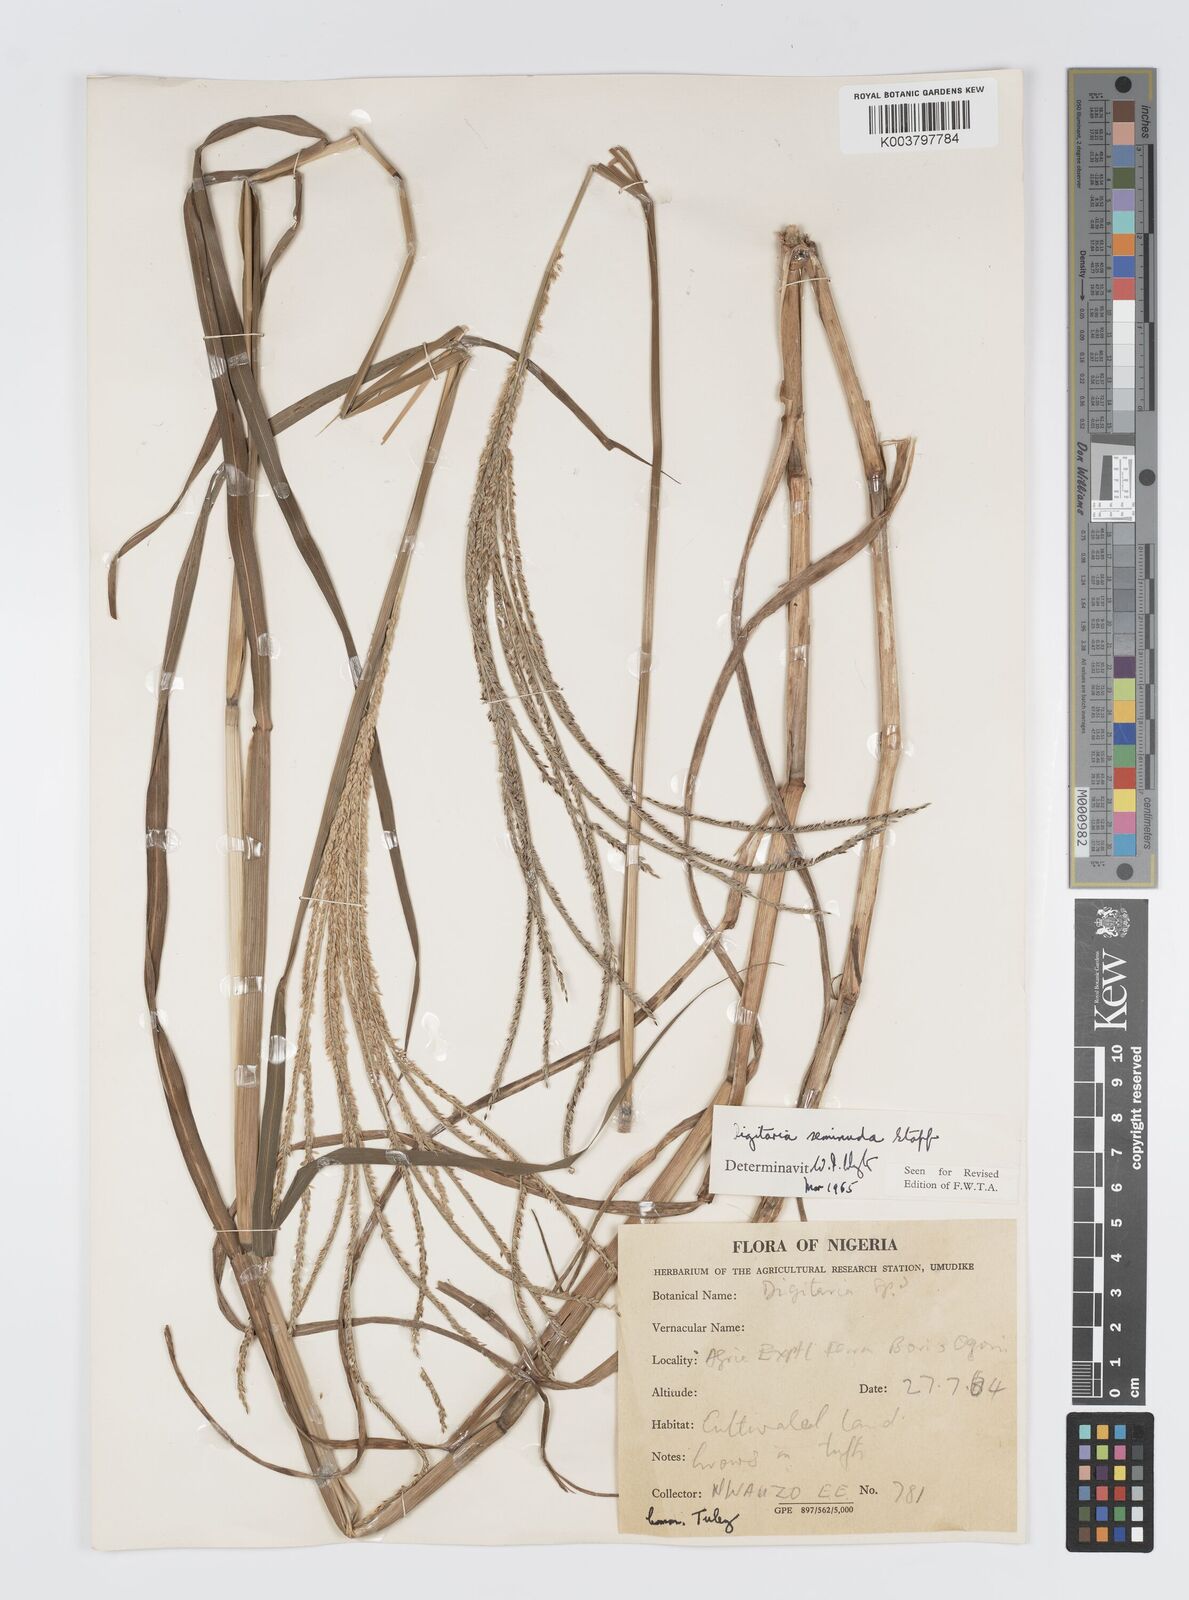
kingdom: Plantae
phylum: Tracheophyta
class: Liliopsida
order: Poales
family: Poaceae
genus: Digitaria
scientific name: Digitaria atrofusca
